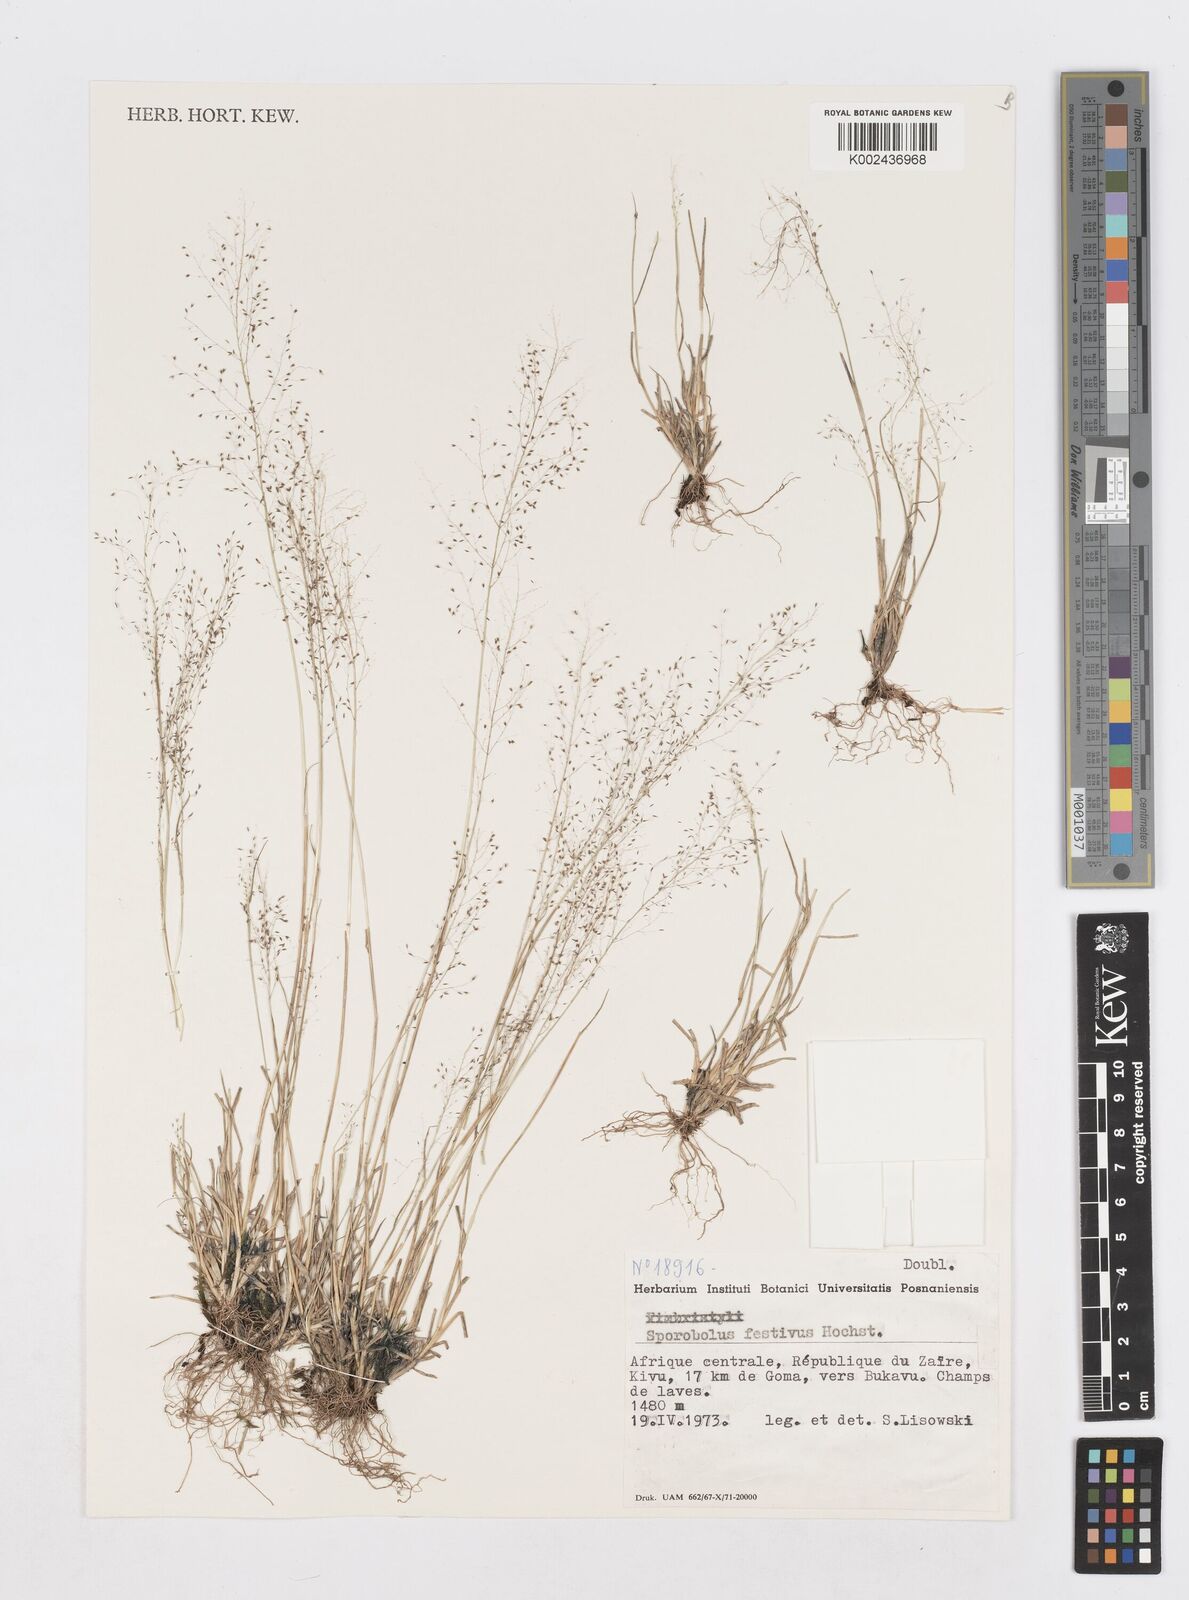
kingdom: Plantae
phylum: Tracheophyta
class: Liliopsida
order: Poales
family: Poaceae
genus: Sporobolus
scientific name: Sporobolus festivus
